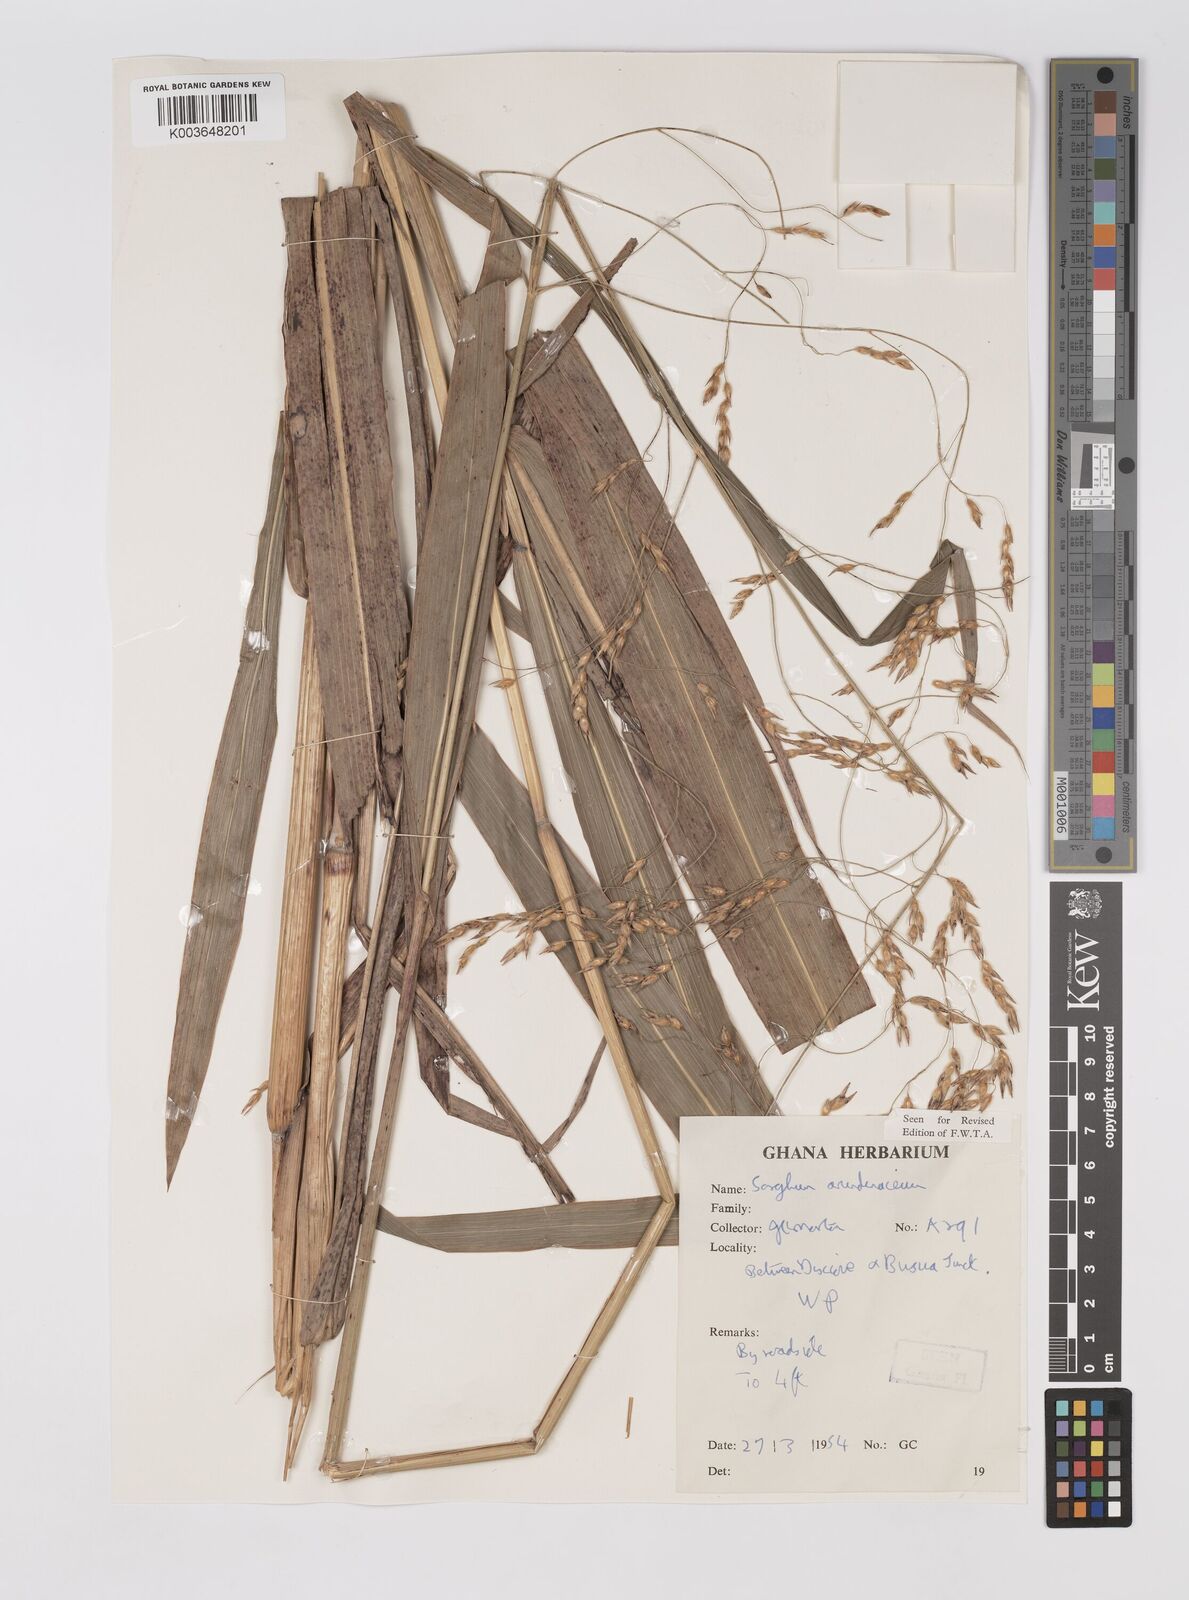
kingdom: Plantae
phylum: Tracheophyta
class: Liliopsida
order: Poales
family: Poaceae
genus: Sorghum
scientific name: Sorghum arundinaceum
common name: Sorghum
